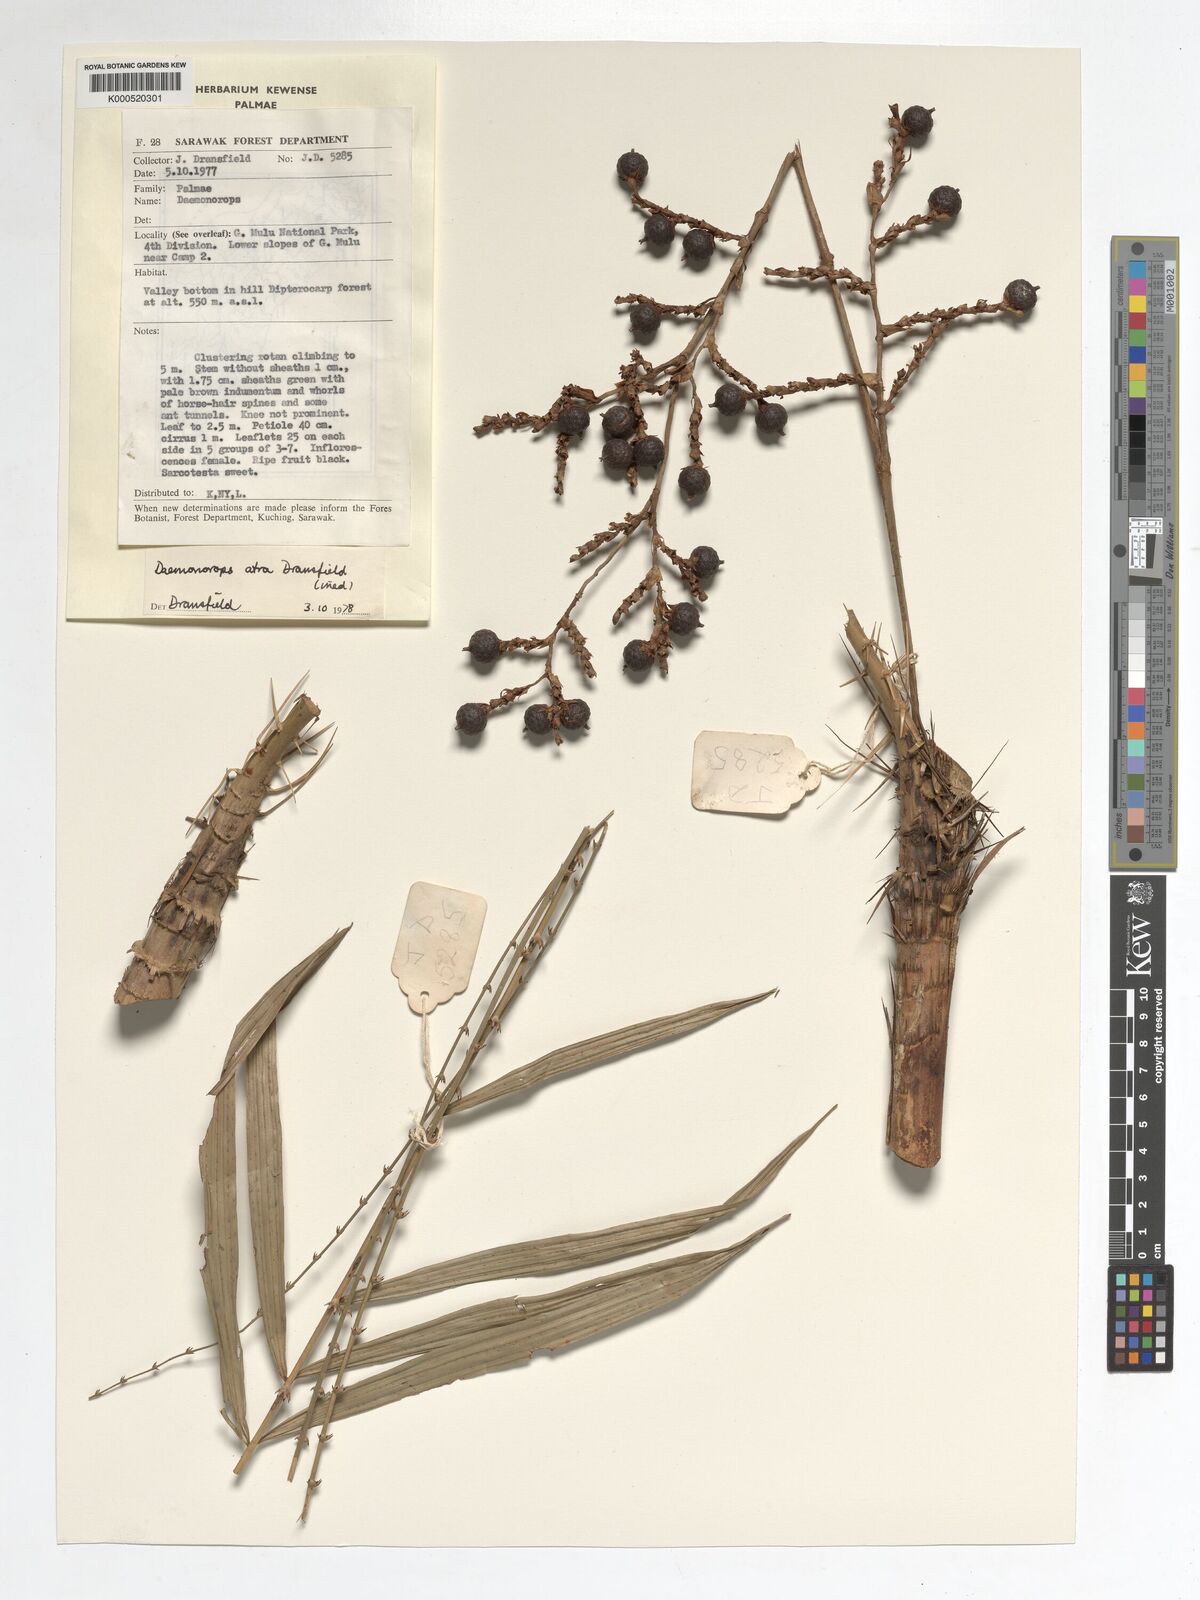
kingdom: Plantae
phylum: Tracheophyta
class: Liliopsida
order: Arecales
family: Arecaceae
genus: Calamus
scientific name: Calamus ater
